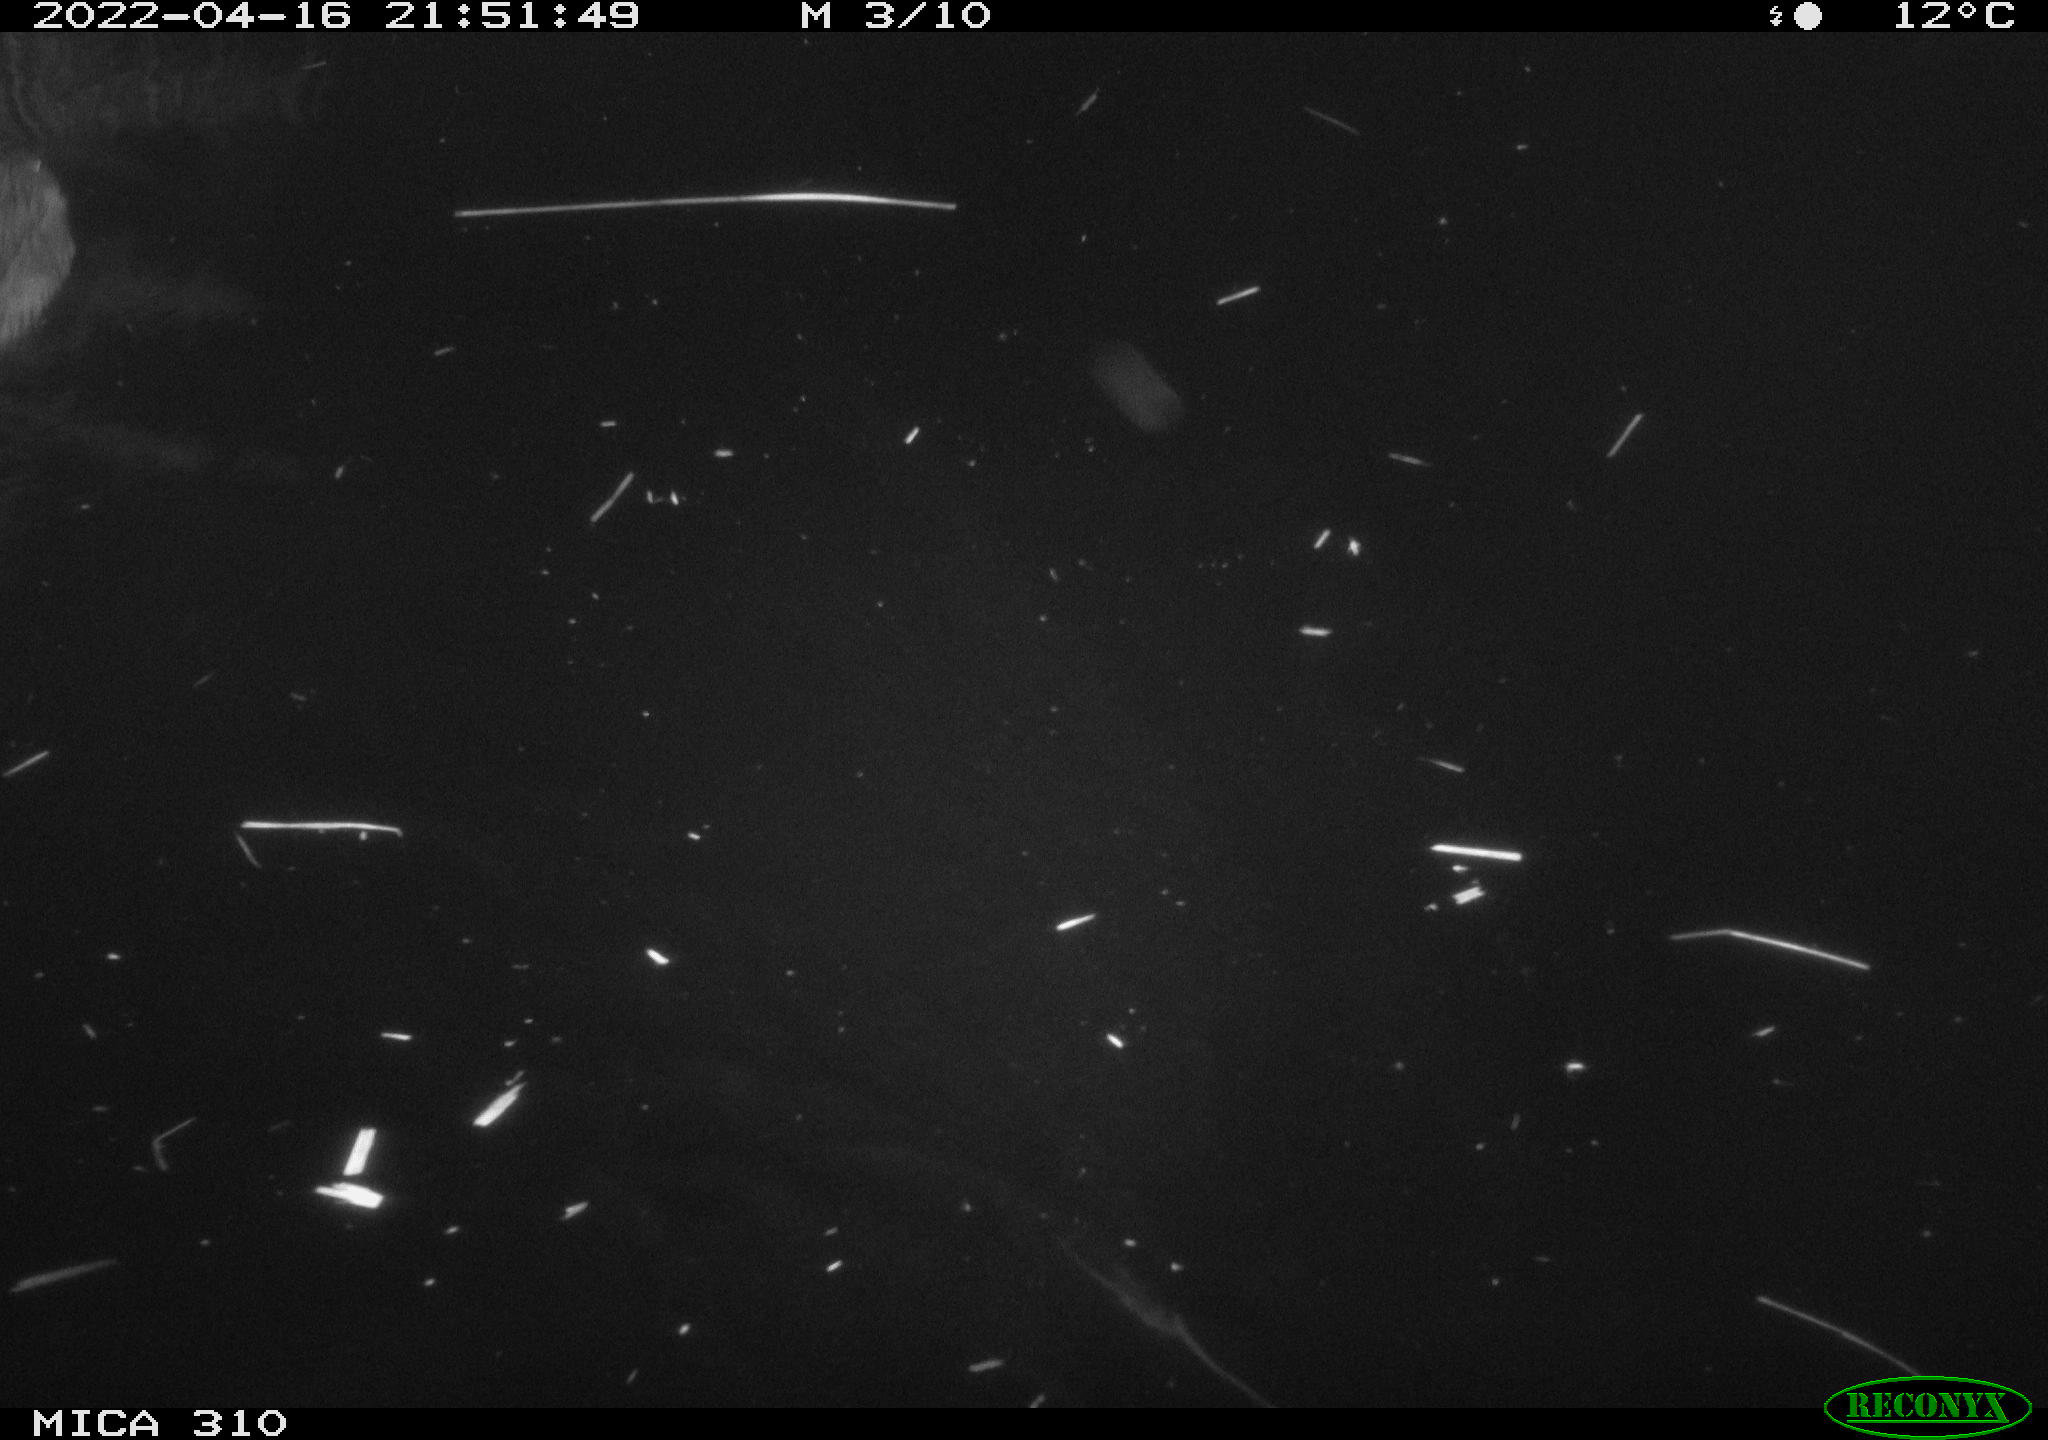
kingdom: Animalia
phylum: Chordata
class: Mammalia
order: Rodentia
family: Cricetidae
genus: Ondatra
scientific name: Ondatra zibethicus
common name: Muskrat
